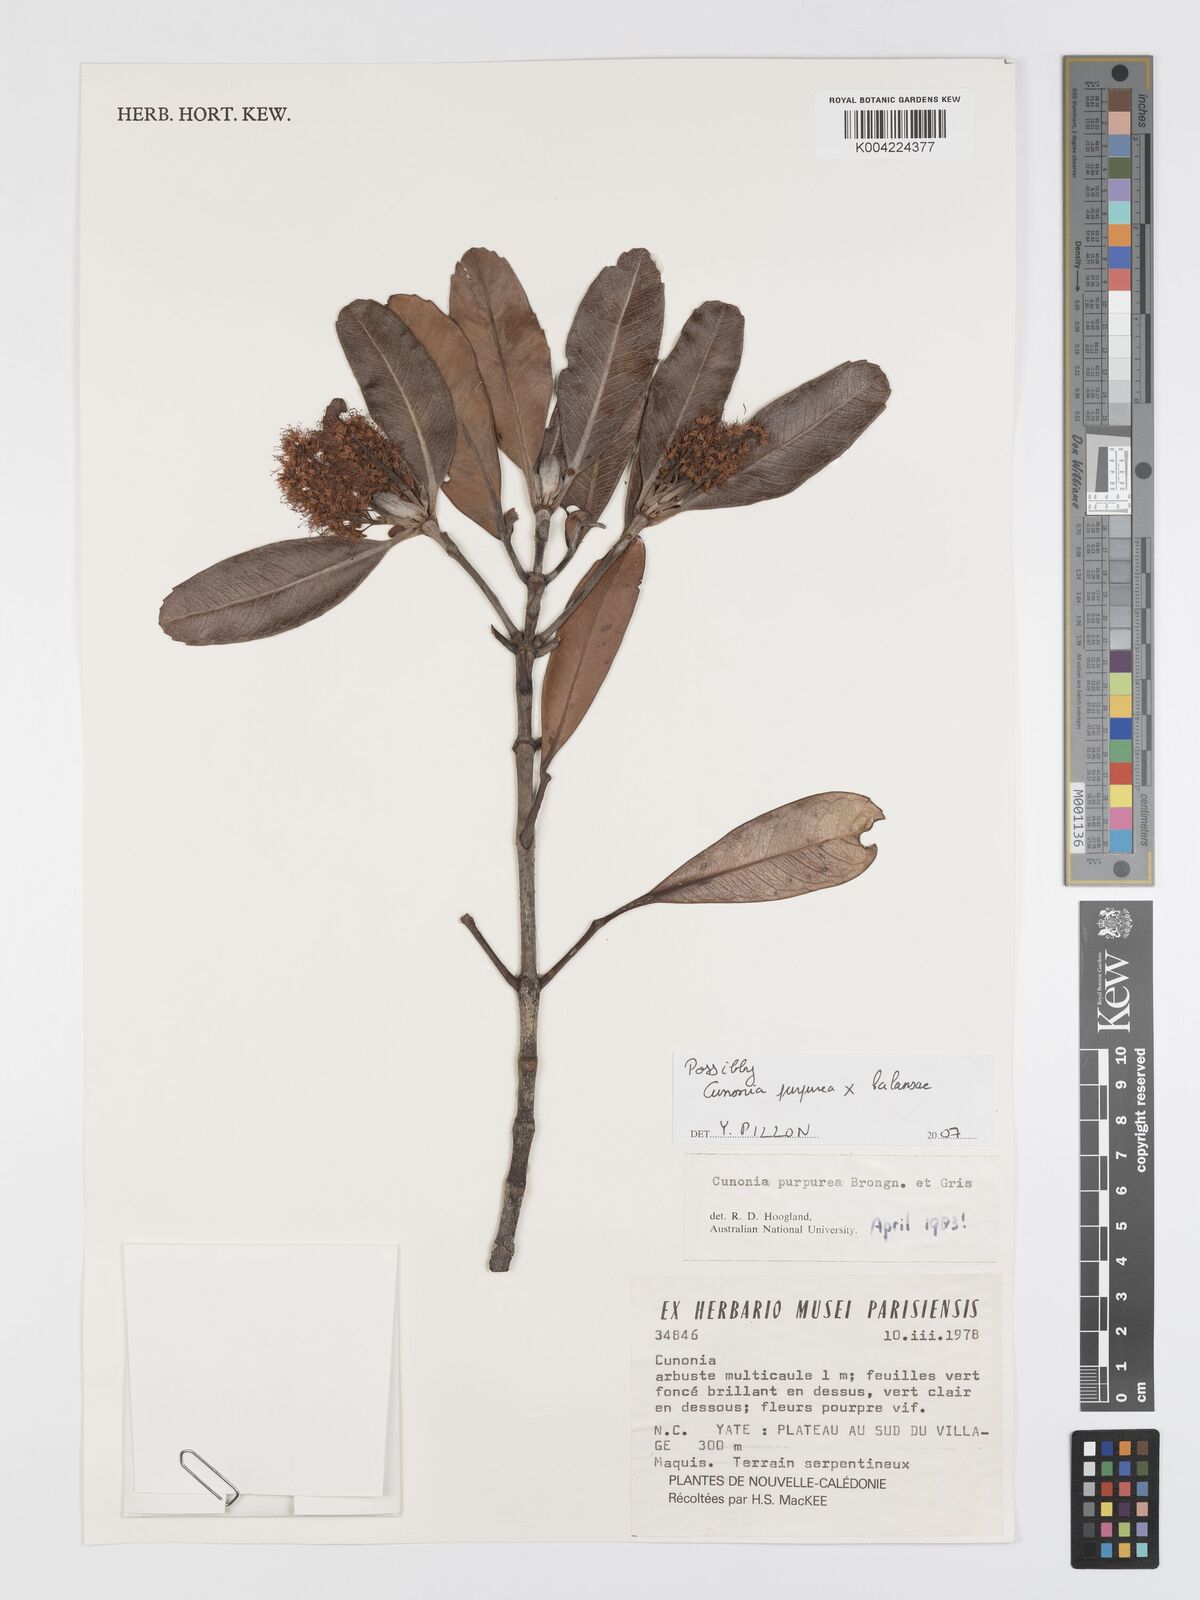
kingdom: Plantae
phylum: Tracheophyta
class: Magnoliopsida
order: Oxalidales
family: Cunoniaceae
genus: Cunonia
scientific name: Cunonia purpurea
